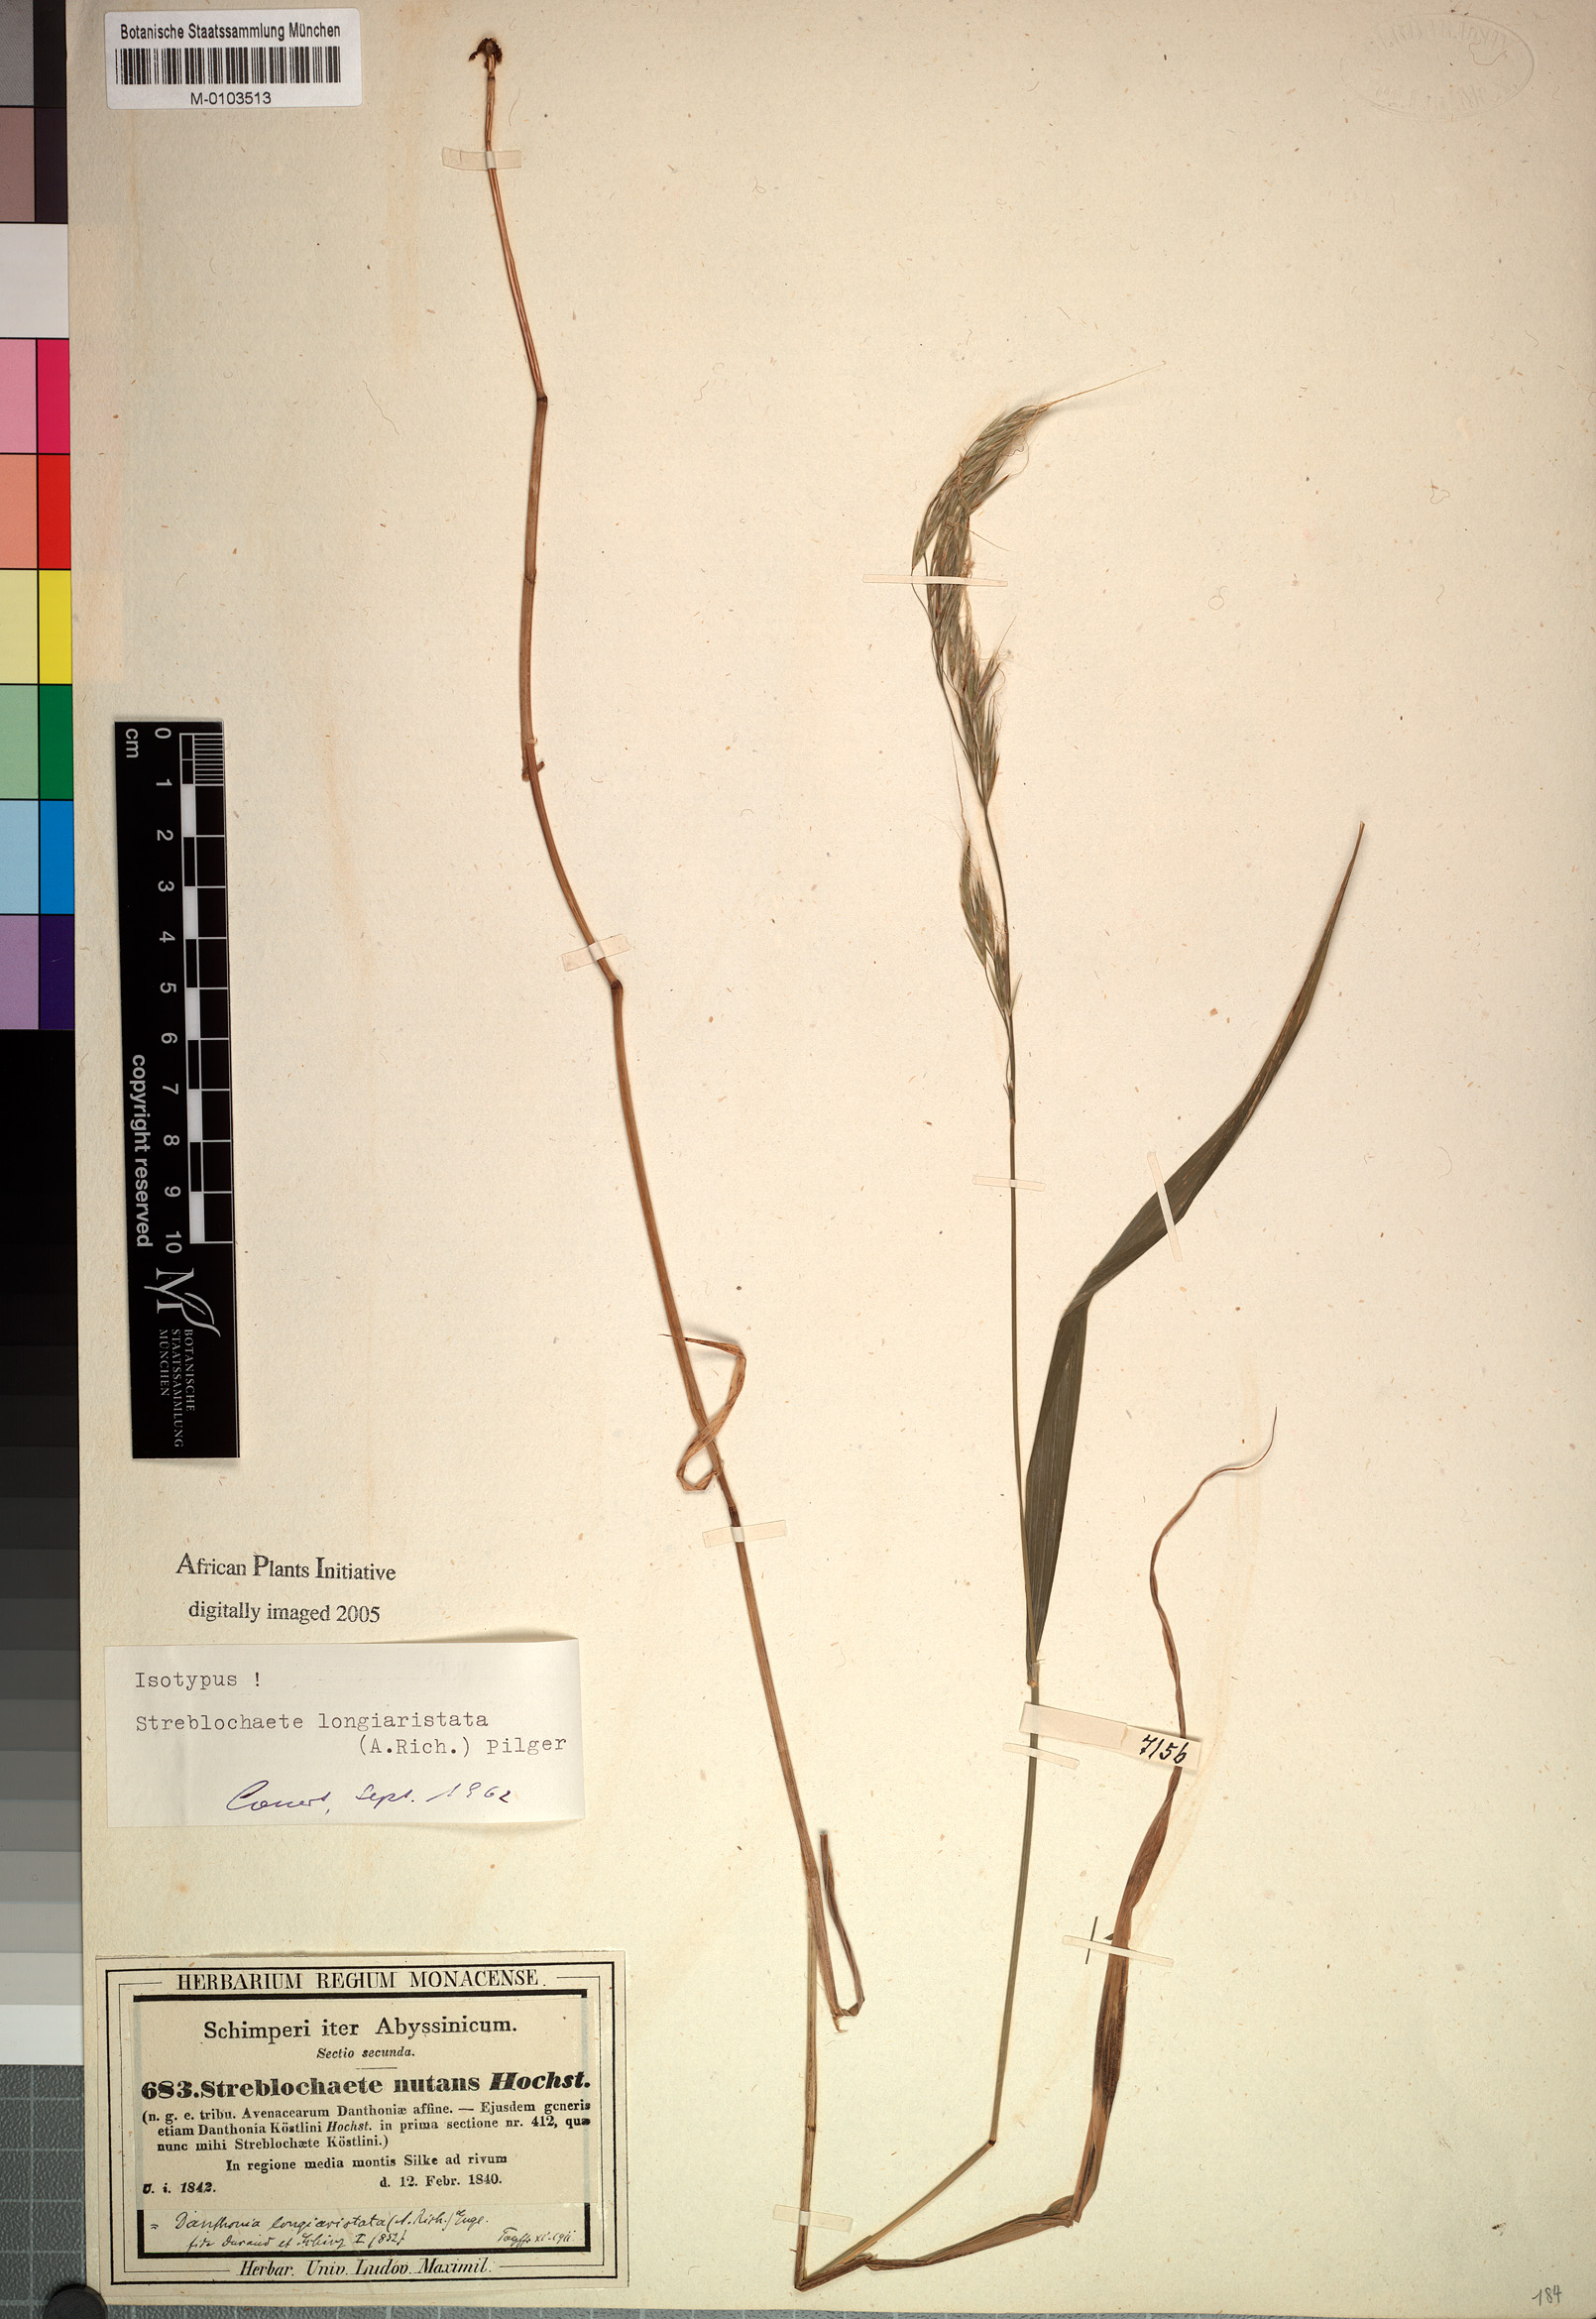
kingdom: Plantae
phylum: Tracheophyta
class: Liliopsida
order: Poales
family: Poaceae
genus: Koordersiochloa
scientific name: Koordersiochloa longiarista
